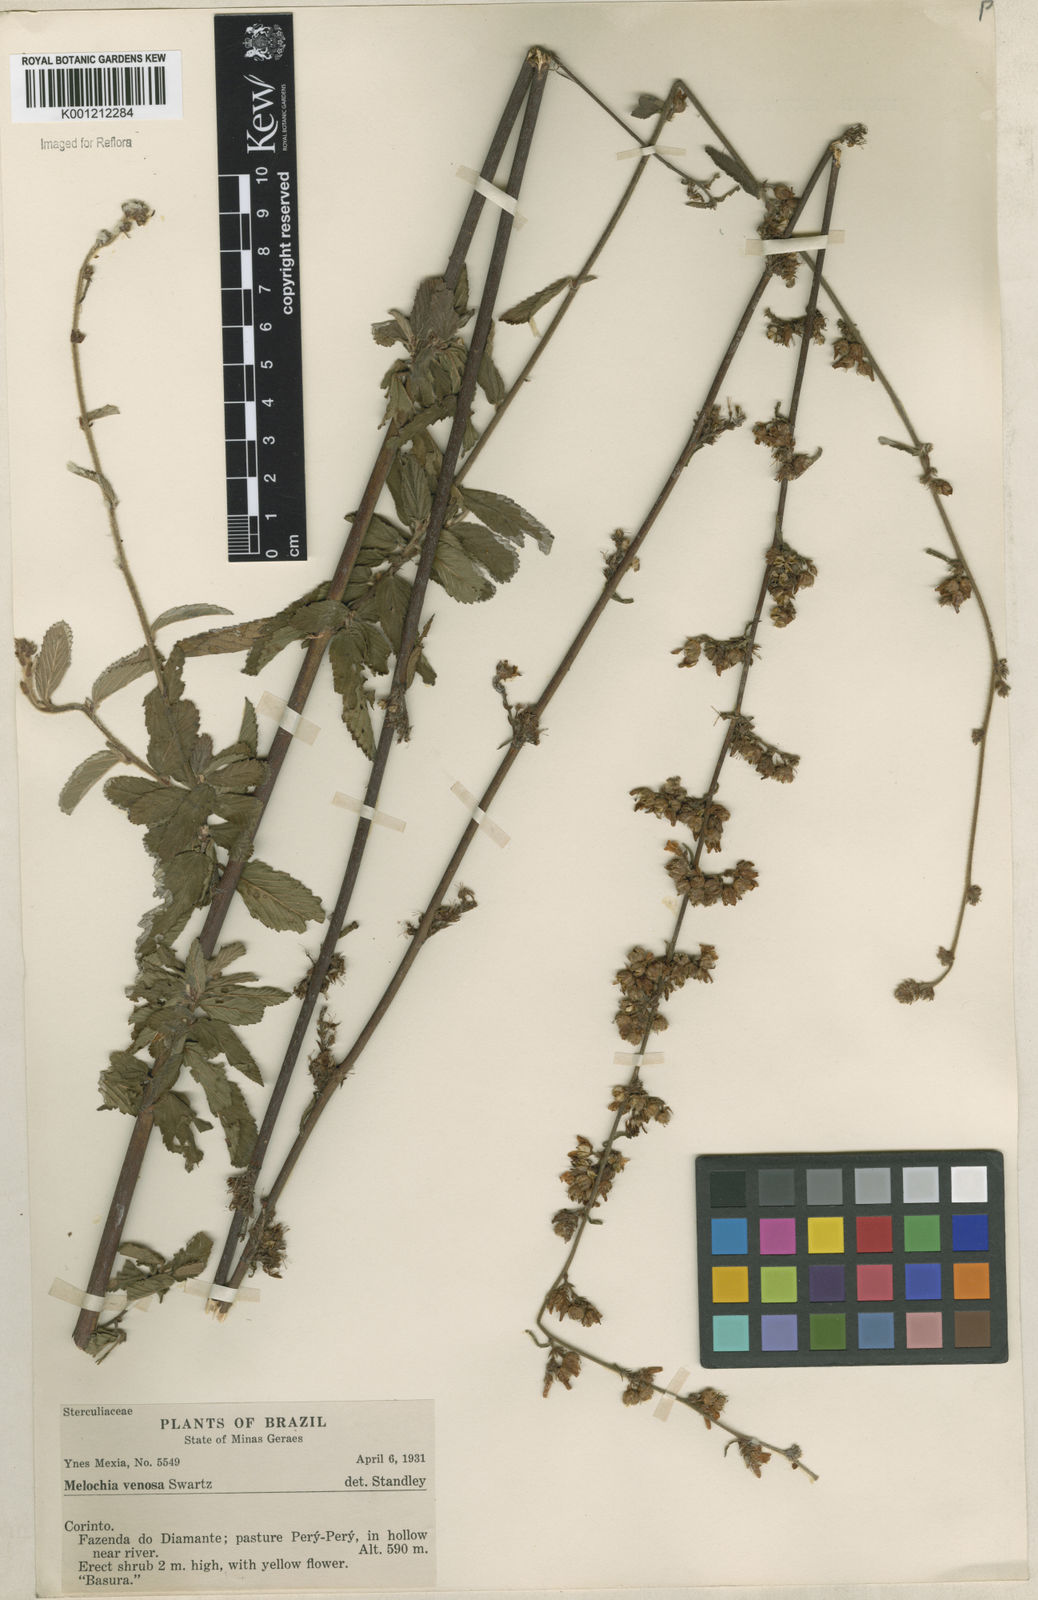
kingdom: Plantae
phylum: Tracheophyta
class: Magnoliopsida
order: Malvales
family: Malvaceae
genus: Melochia
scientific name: Melochia pilosa
